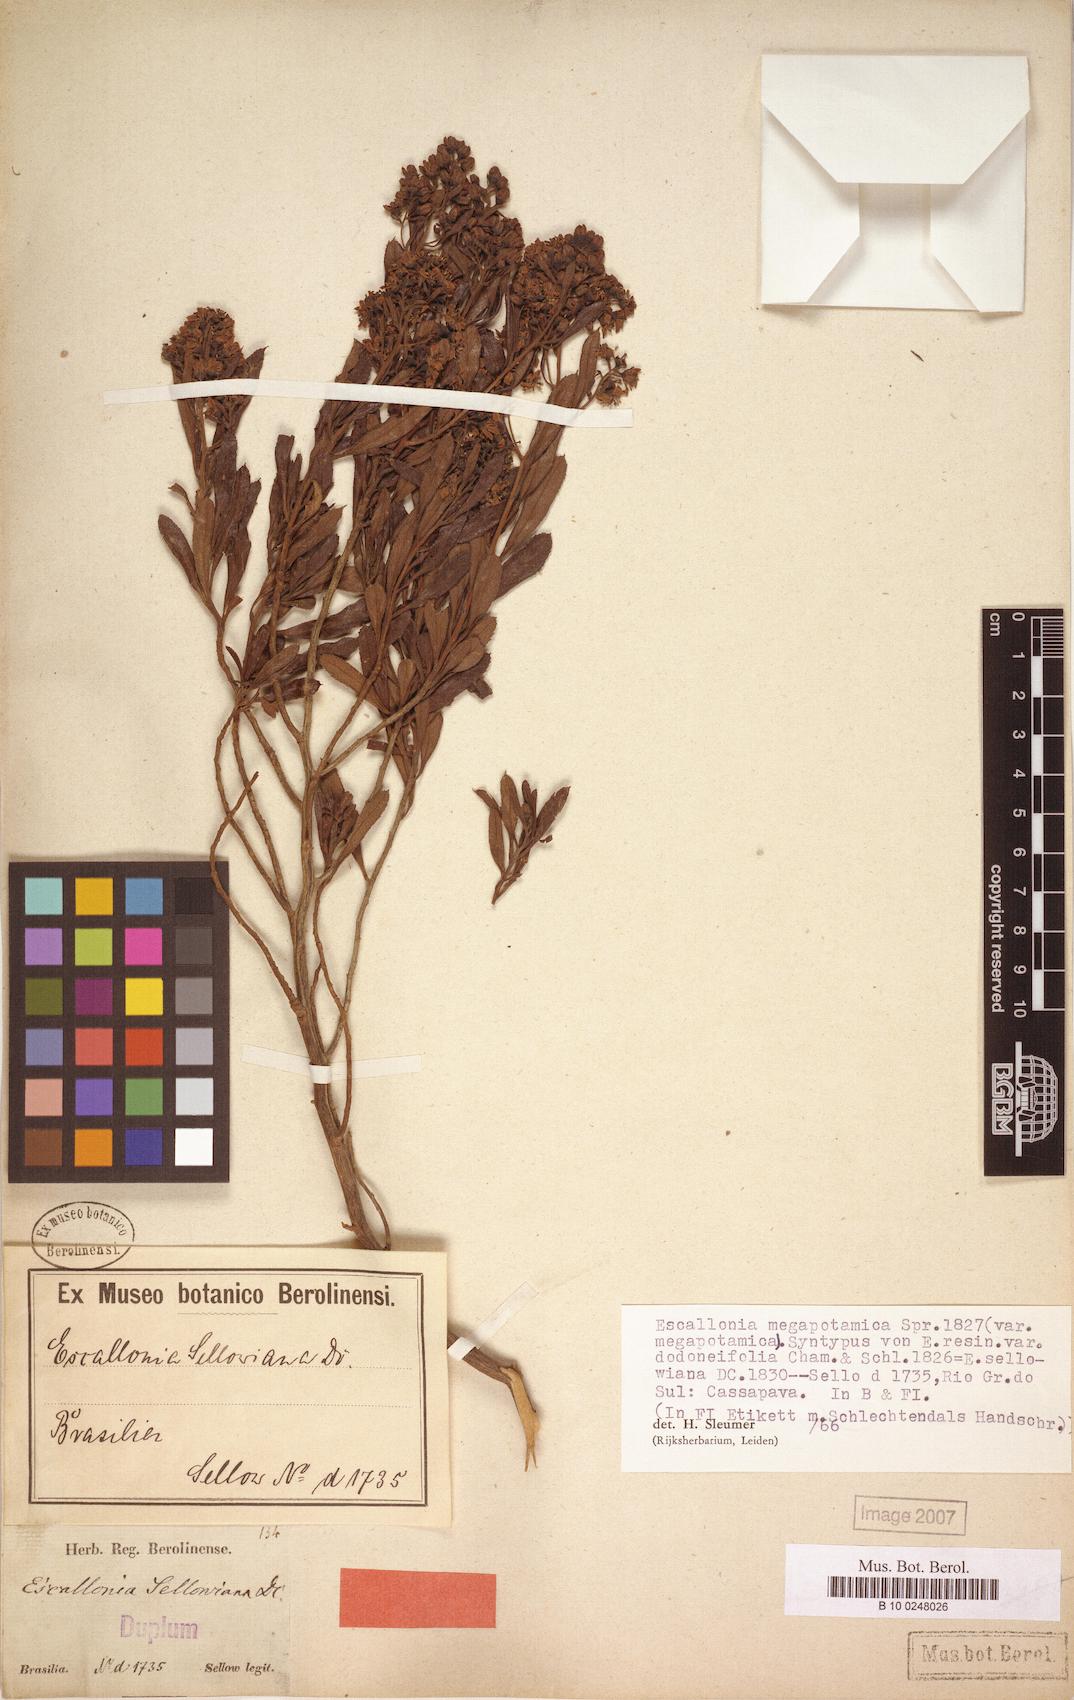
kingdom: Plantae
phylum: Tracheophyta
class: Magnoliopsida
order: Escalloniales
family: Escalloniaceae
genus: Escallonia
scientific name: Escallonia megapotamica
